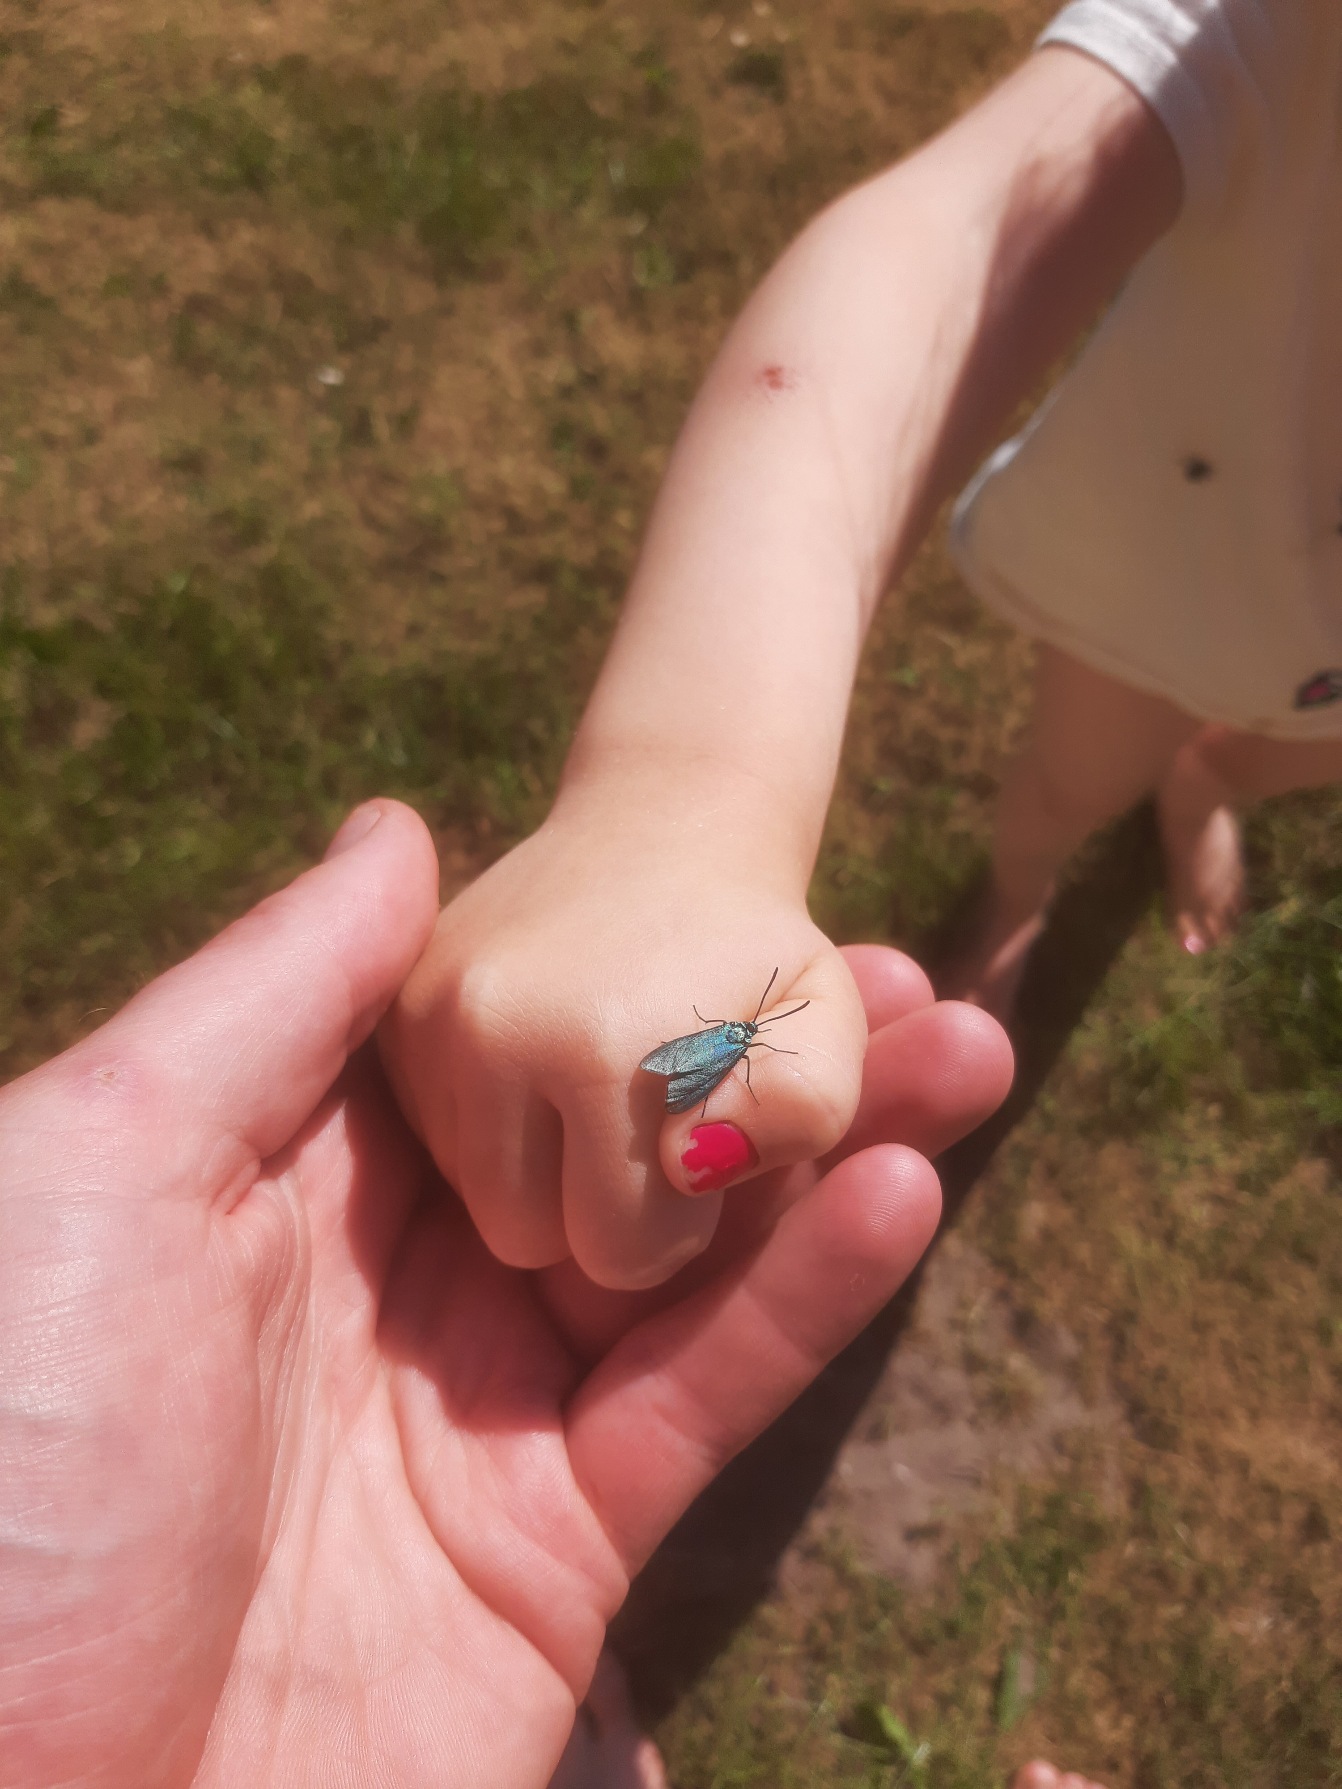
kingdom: Animalia
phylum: Arthropoda
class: Insecta
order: Lepidoptera
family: Zygaenidae
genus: Adscita
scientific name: Adscita statices
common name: Metalvinge
